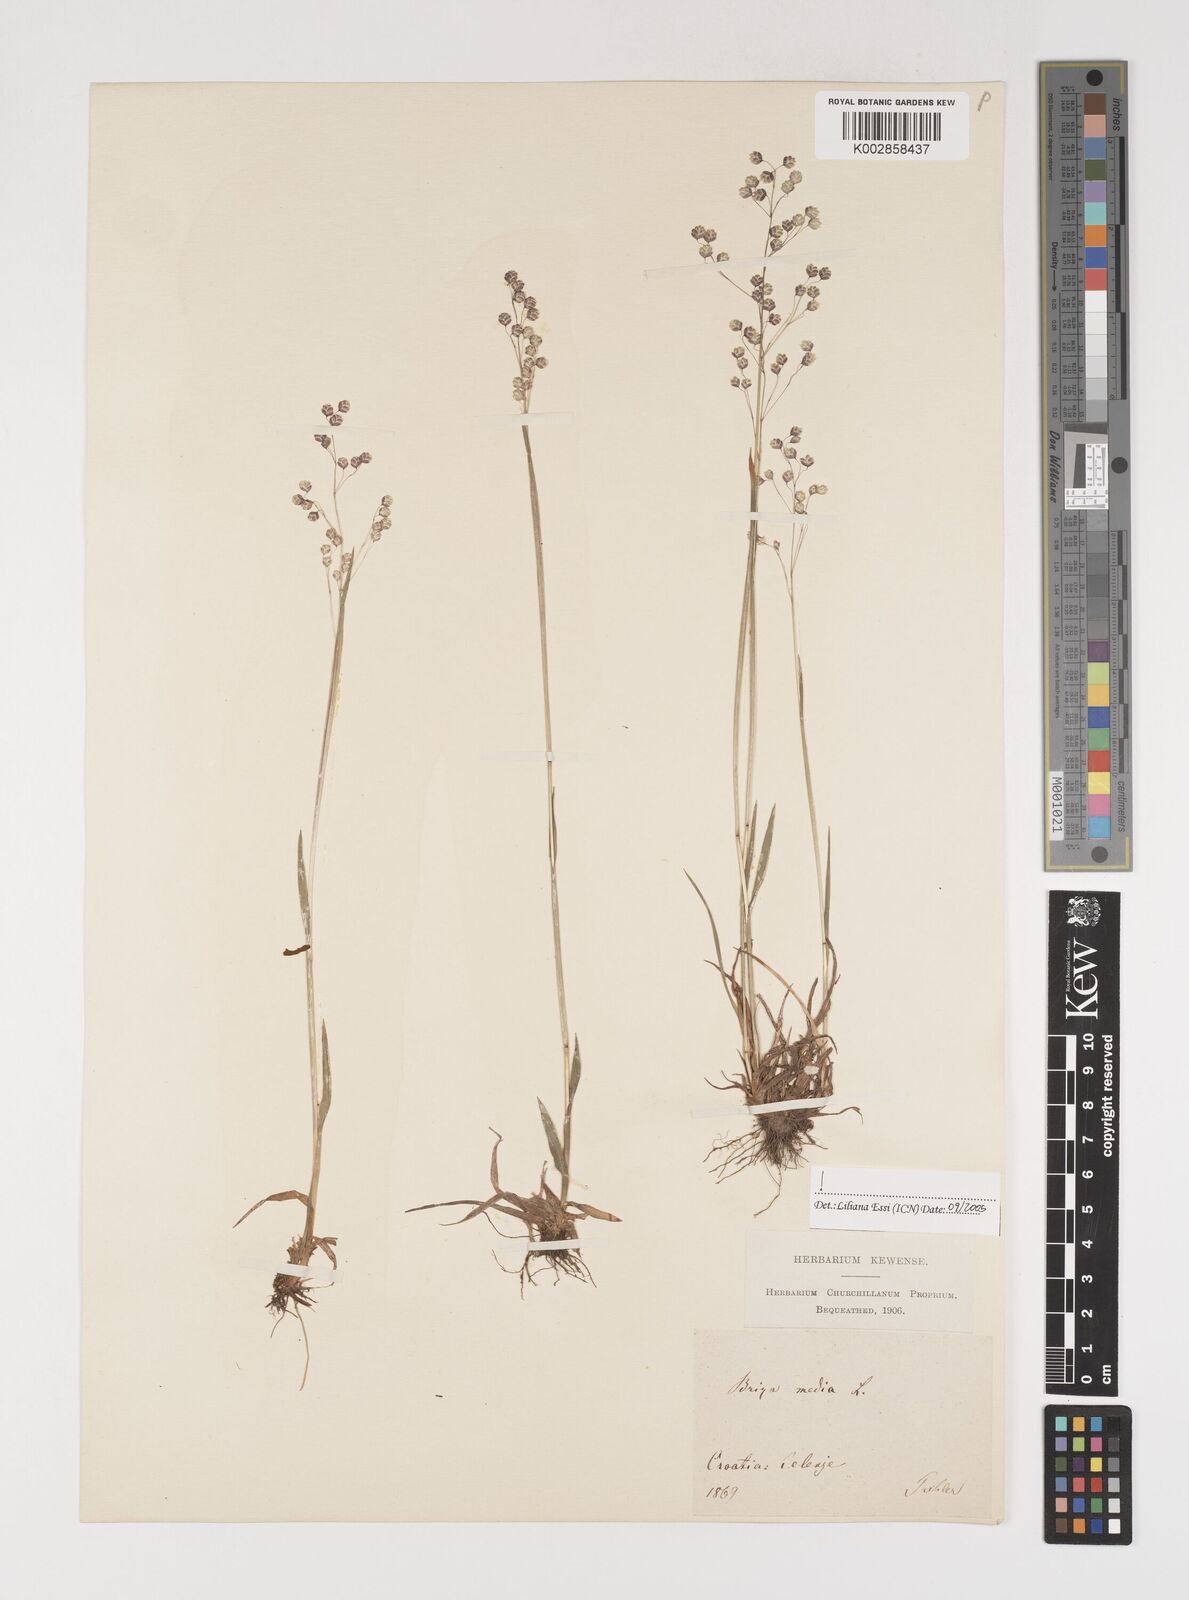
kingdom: Plantae
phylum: Tracheophyta
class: Liliopsida
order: Poales
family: Poaceae
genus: Briza
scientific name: Briza media
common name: Quaking grass
